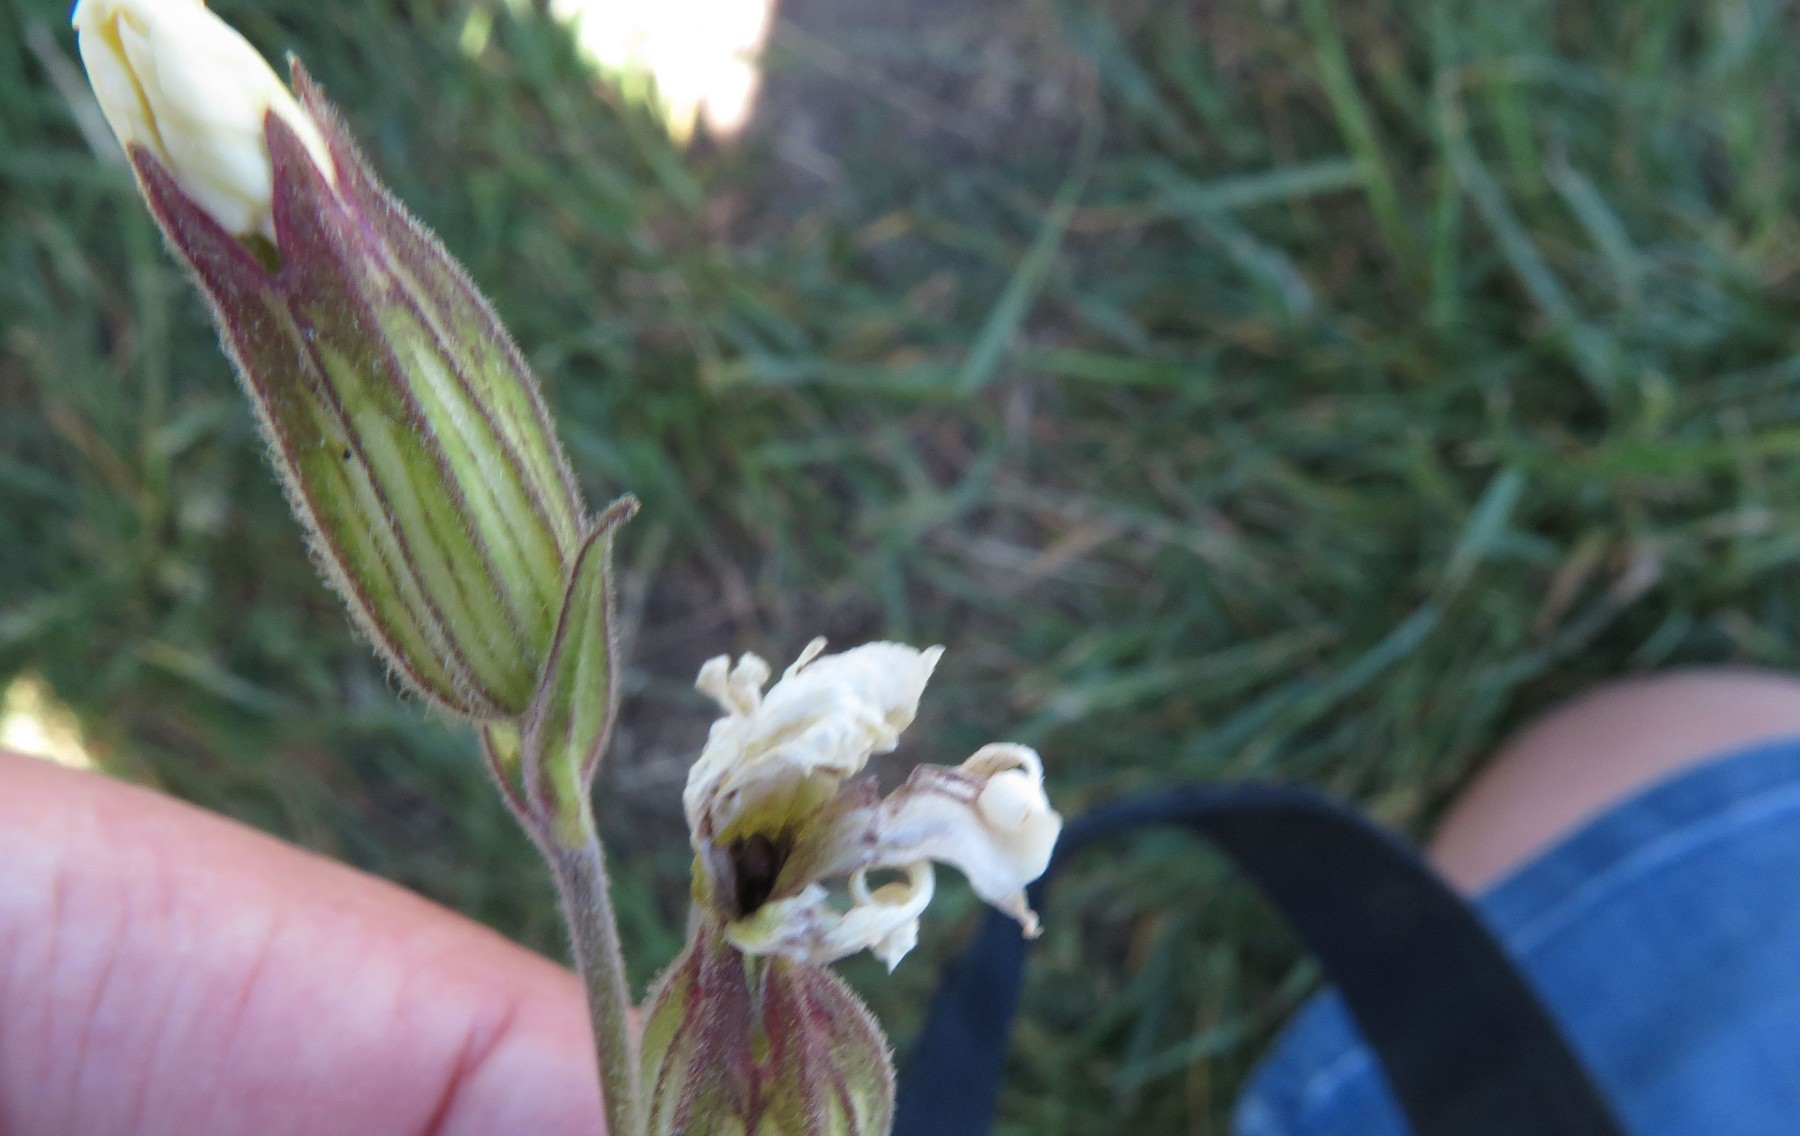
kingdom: Fungi
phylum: Basidiomycota
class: Microbotryomycetes
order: Microbotryales
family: Microbotryaceae
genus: Microbotryum
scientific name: Microbotryum lychnidis-dioicae
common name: Campion anther smut
